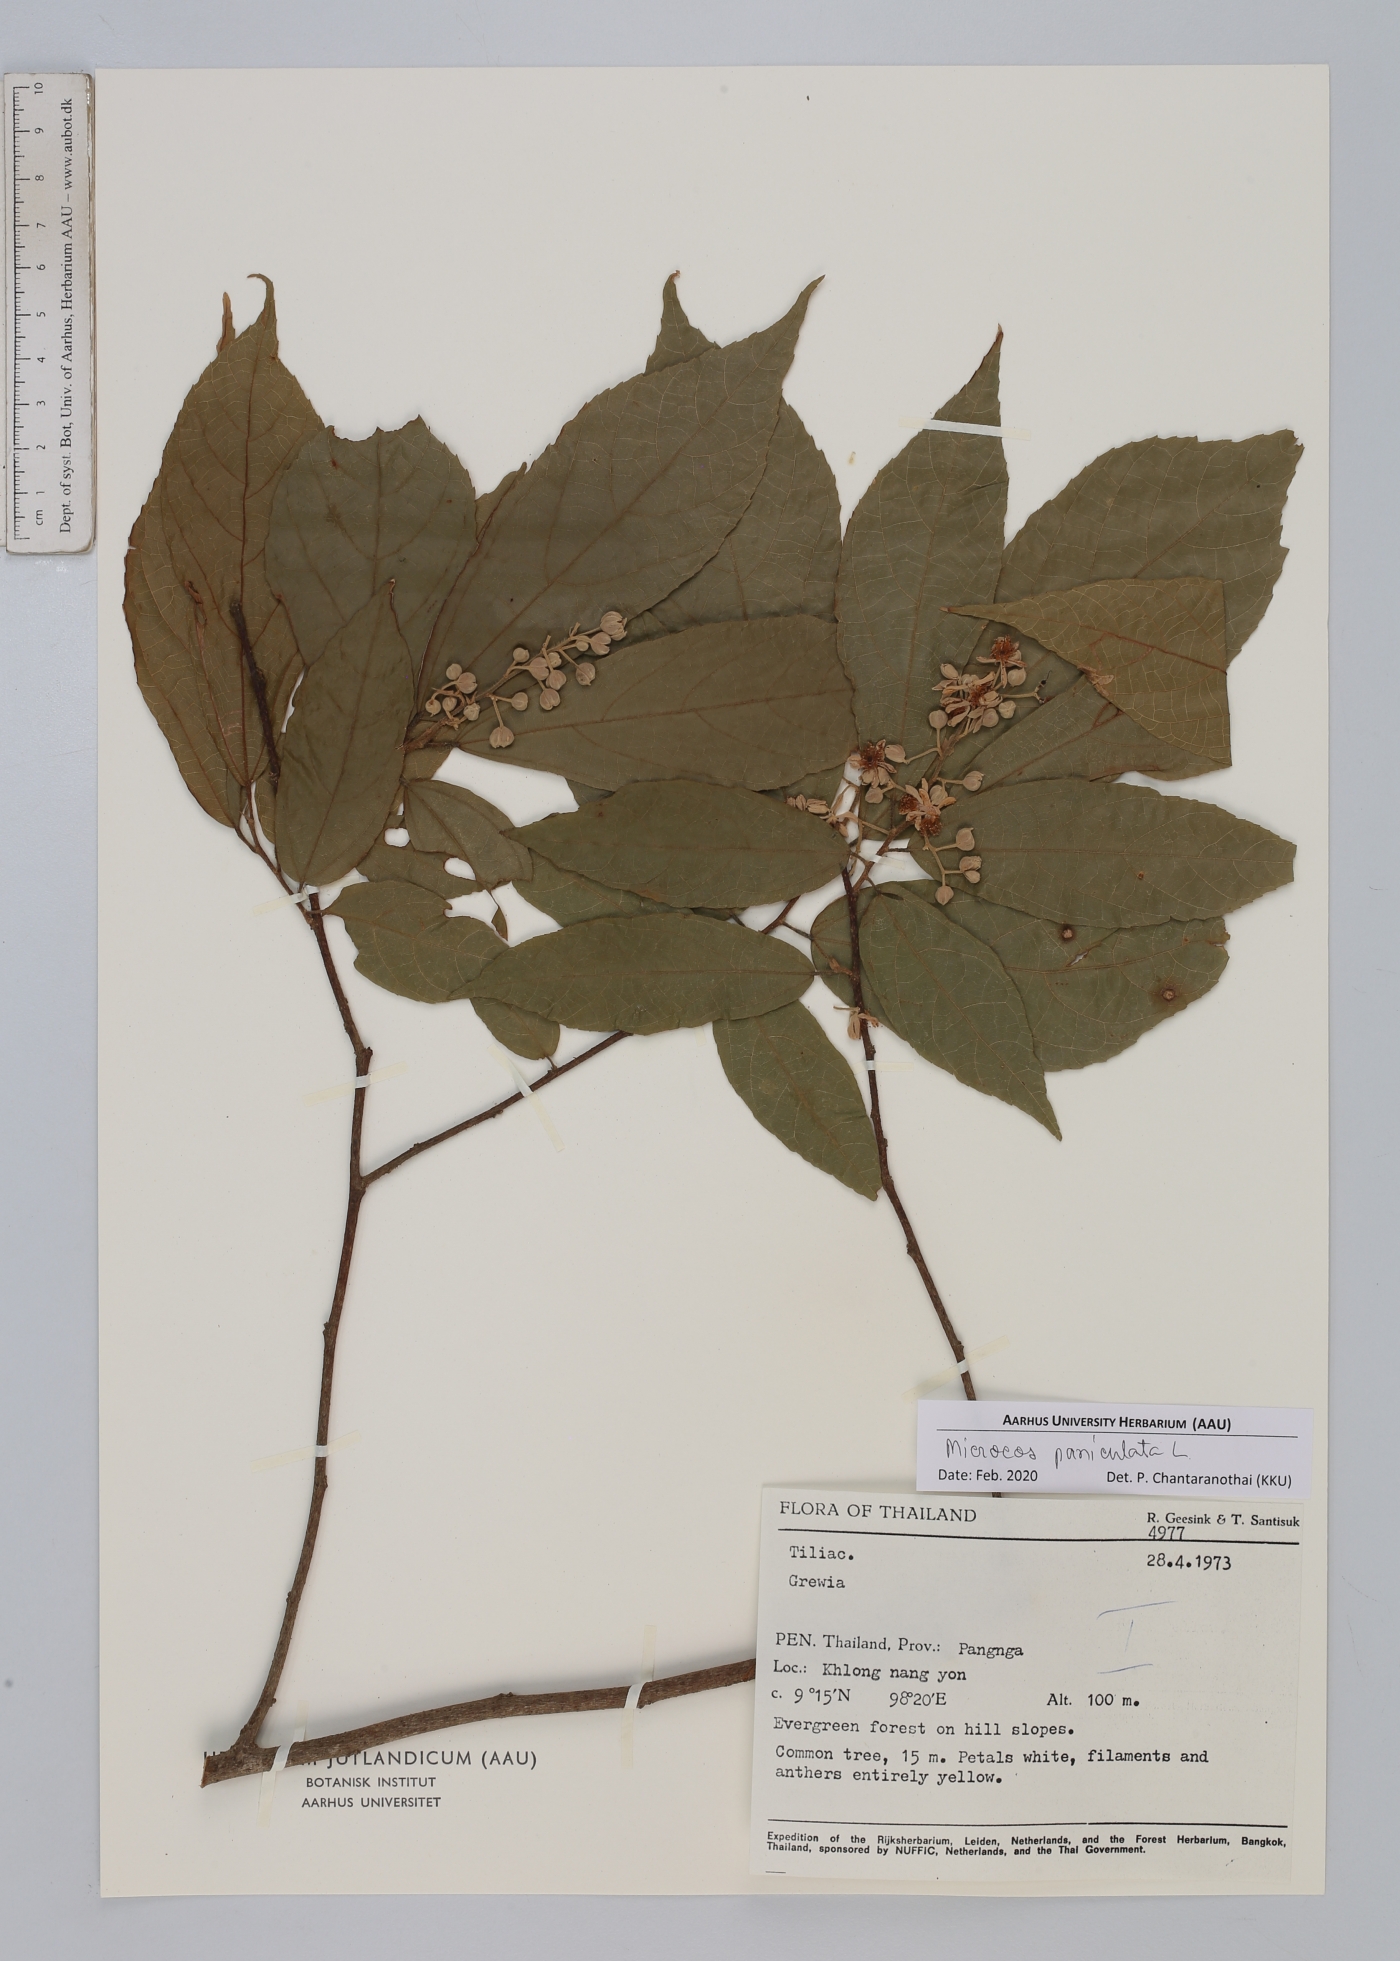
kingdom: Plantae
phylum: Tracheophyta
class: Magnoliopsida
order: Malvales
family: Malvaceae
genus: Microcos
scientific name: Microcos paniculata
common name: Microcos
